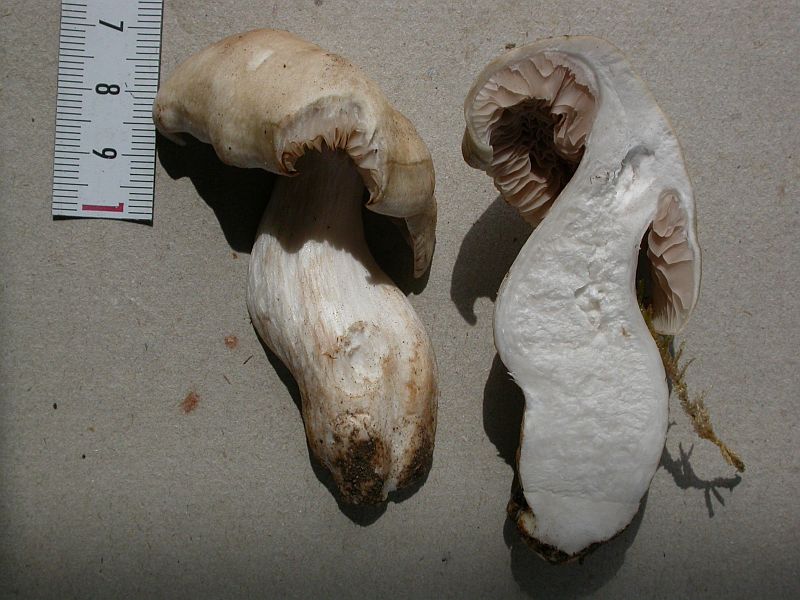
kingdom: Fungi
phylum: Basidiomycota
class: Agaricomycetes
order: Agaricales
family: Entolomataceae
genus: Entoloma
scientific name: Entoloma sepium
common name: slåen-rødblad
